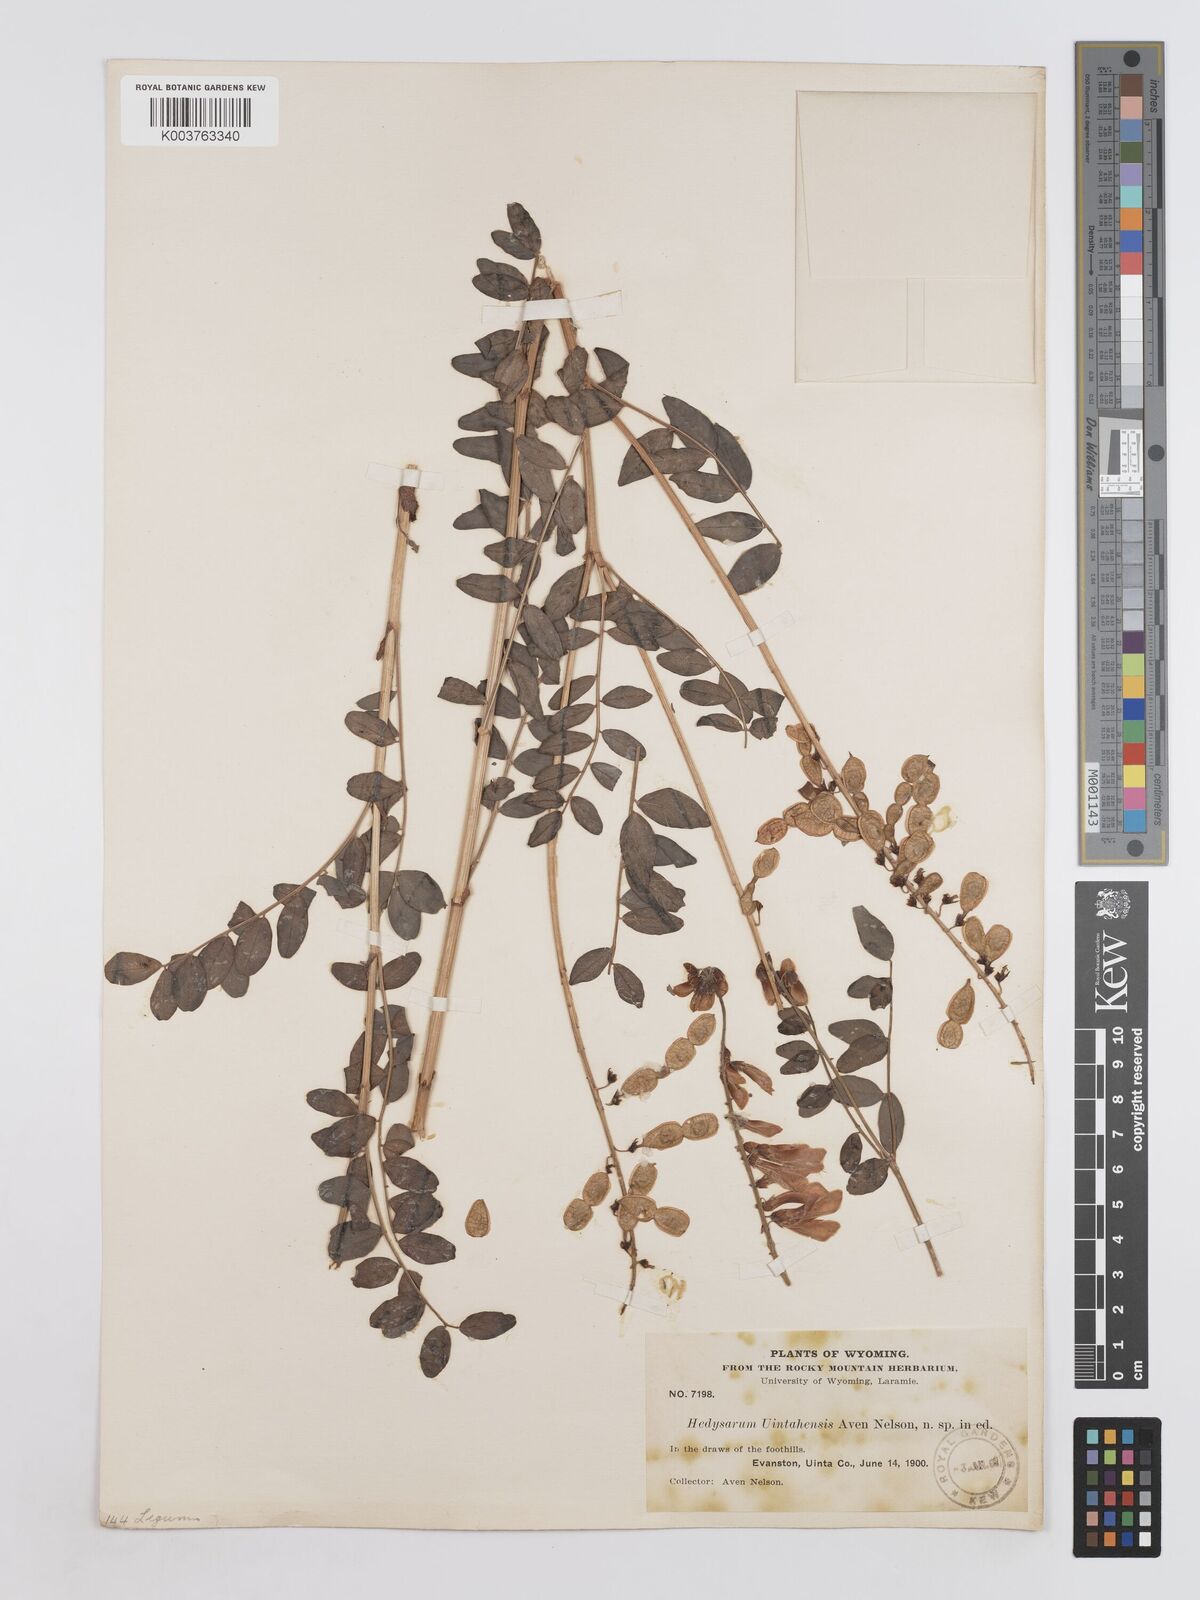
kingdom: Plantae
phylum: Tracheophyta
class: Magnoliopsida
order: Fabales
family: Fabaceae
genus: Hedysarum
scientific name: Hedysarum occidentale
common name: Western hedysarum
